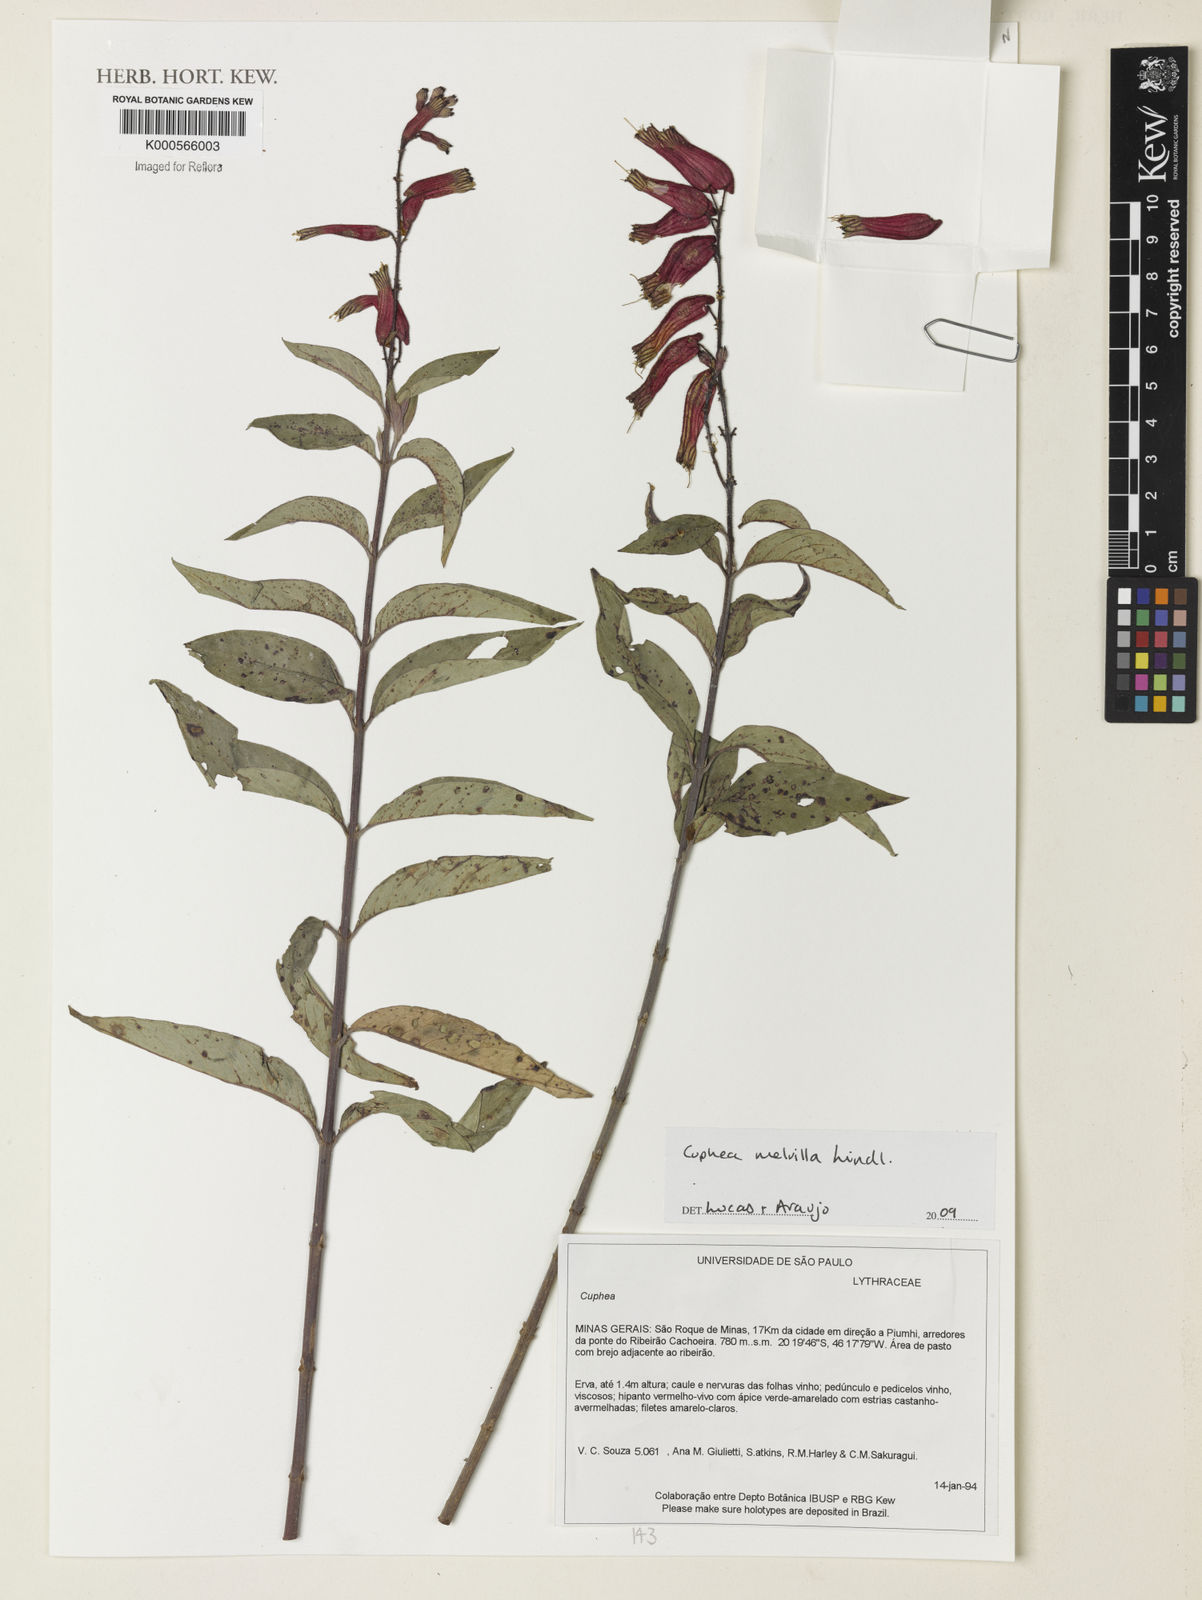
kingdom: Plantae
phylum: Tracheophyta
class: Magnoliopsida
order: Myrtales
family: Lythraceae
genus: Cuphea
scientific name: Cuphea
